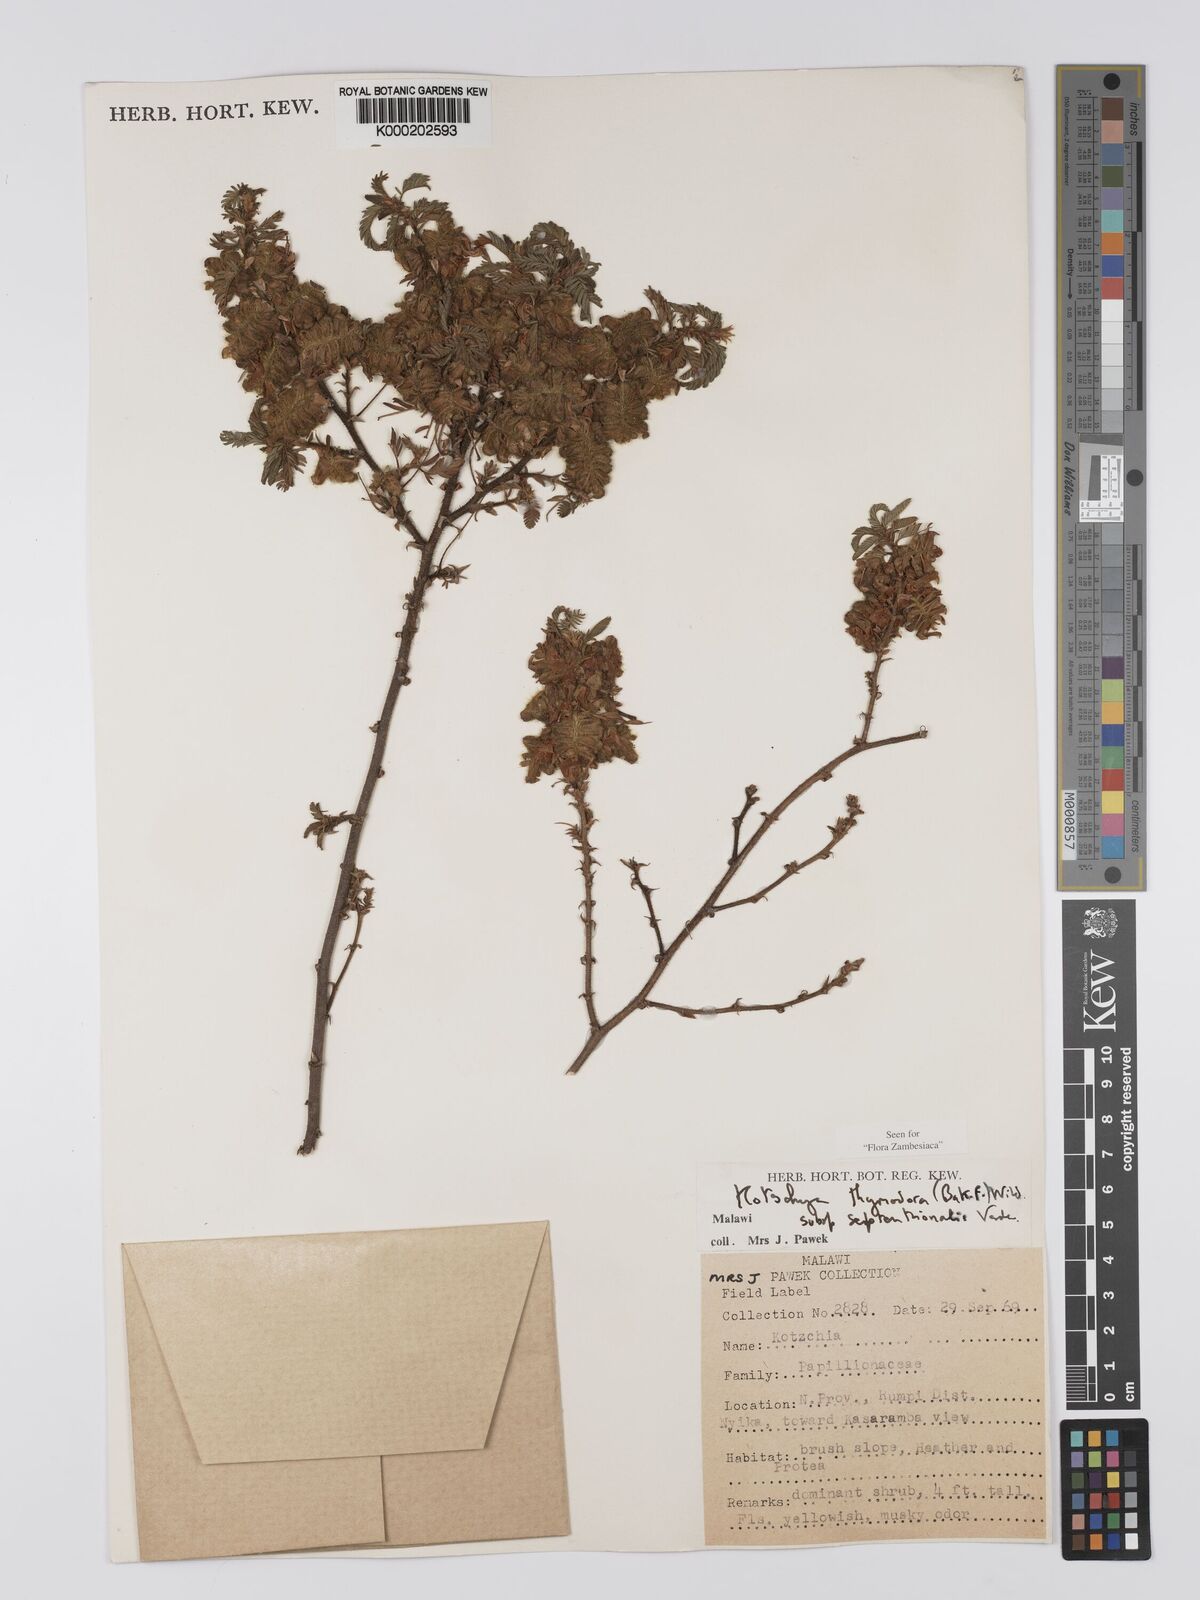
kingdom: Plantae
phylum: Tracheophyta
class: Magnoliopsida
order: Fabales
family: Fabaceae
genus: Kotschya
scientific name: Kotschya thymodora
